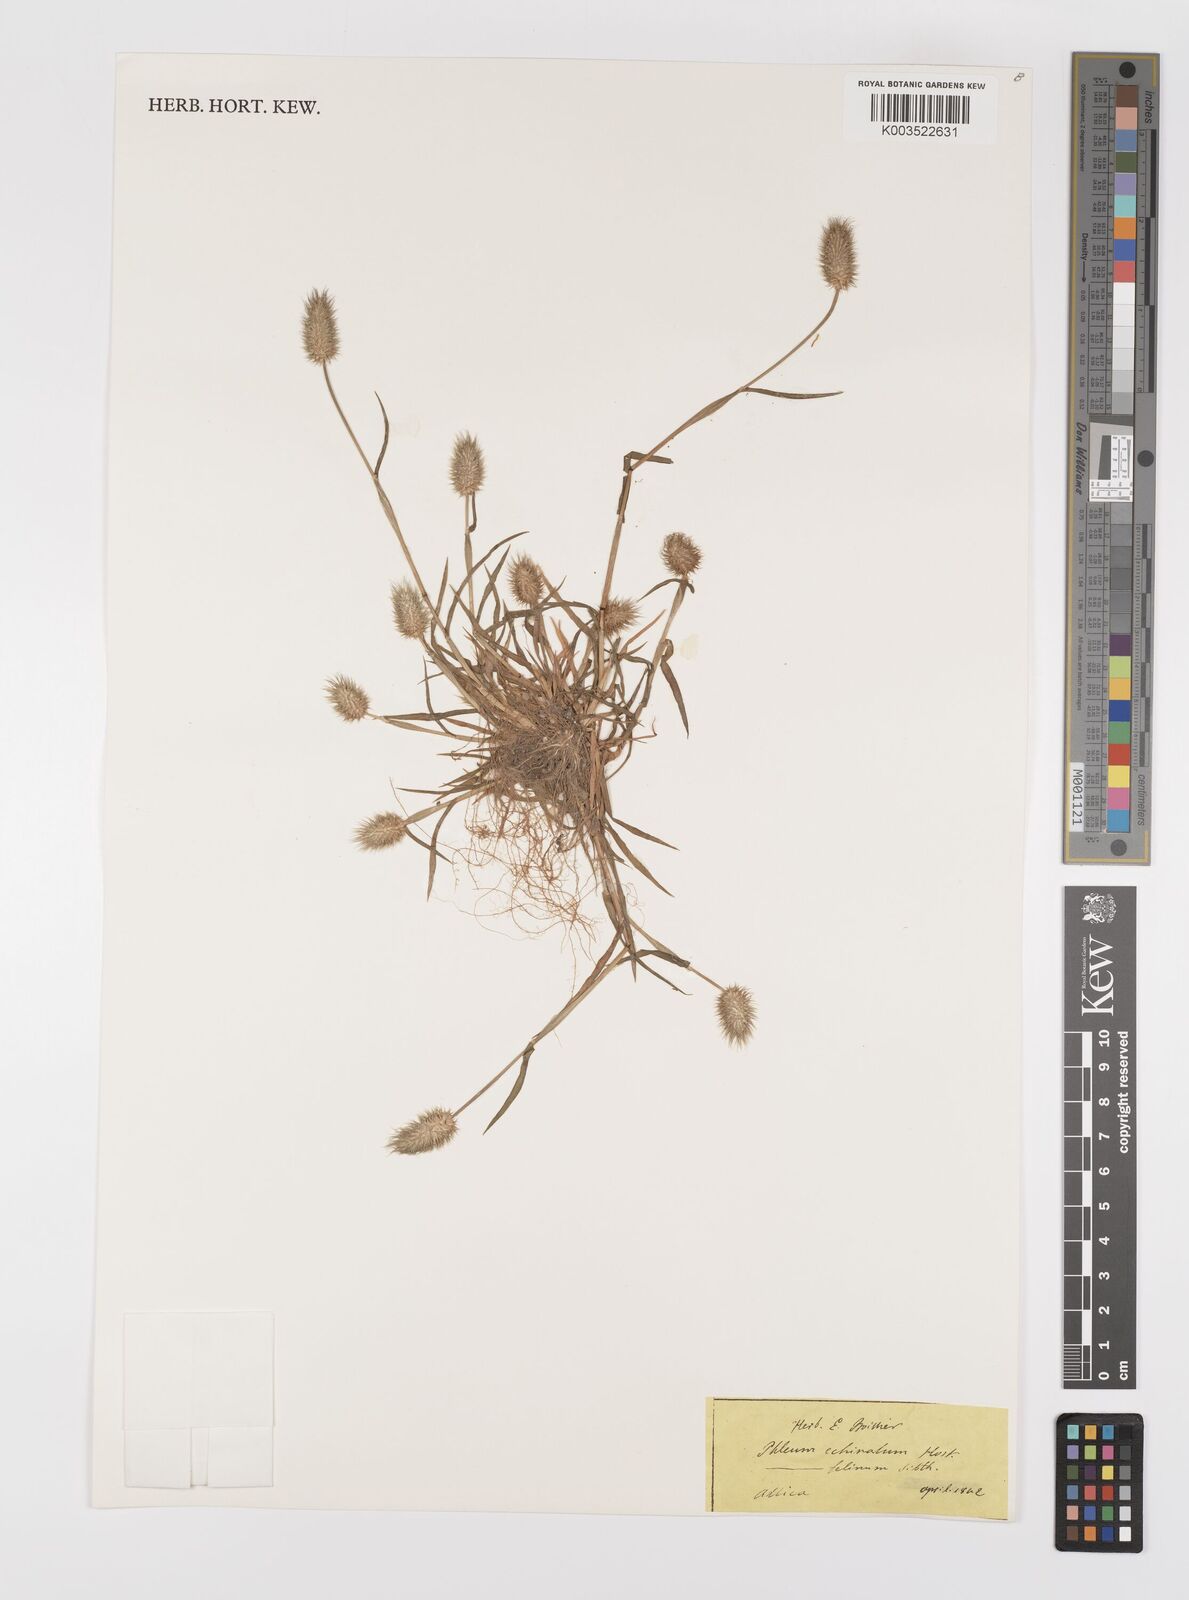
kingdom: Plantae
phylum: Tracheophyta
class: Liliopsida
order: Poales
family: Poaceae
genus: Phleum
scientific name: Phleum echinatum
